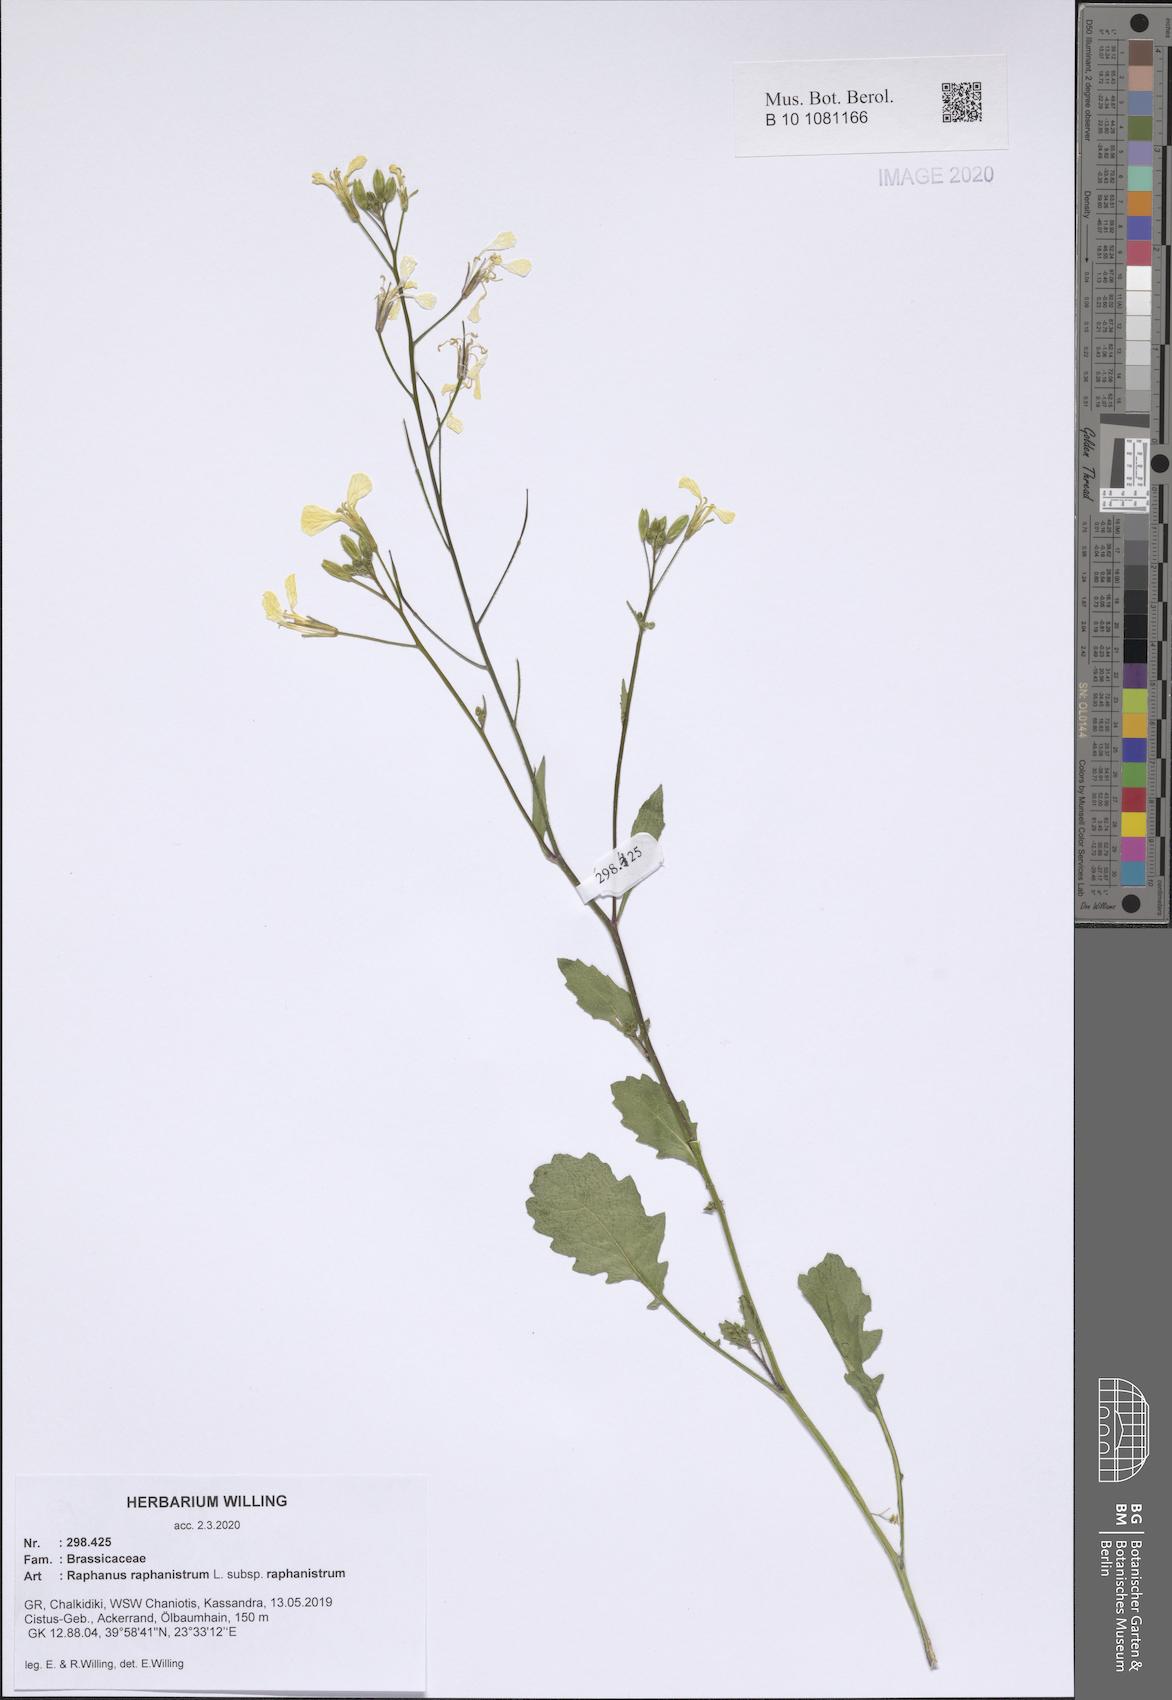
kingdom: Plantae
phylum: Tracheophyta
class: Magnoliopsida
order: Brassicales
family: Brassicaceae
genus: Raphanus
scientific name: Raphanus raphanistrum
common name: Wild radish
